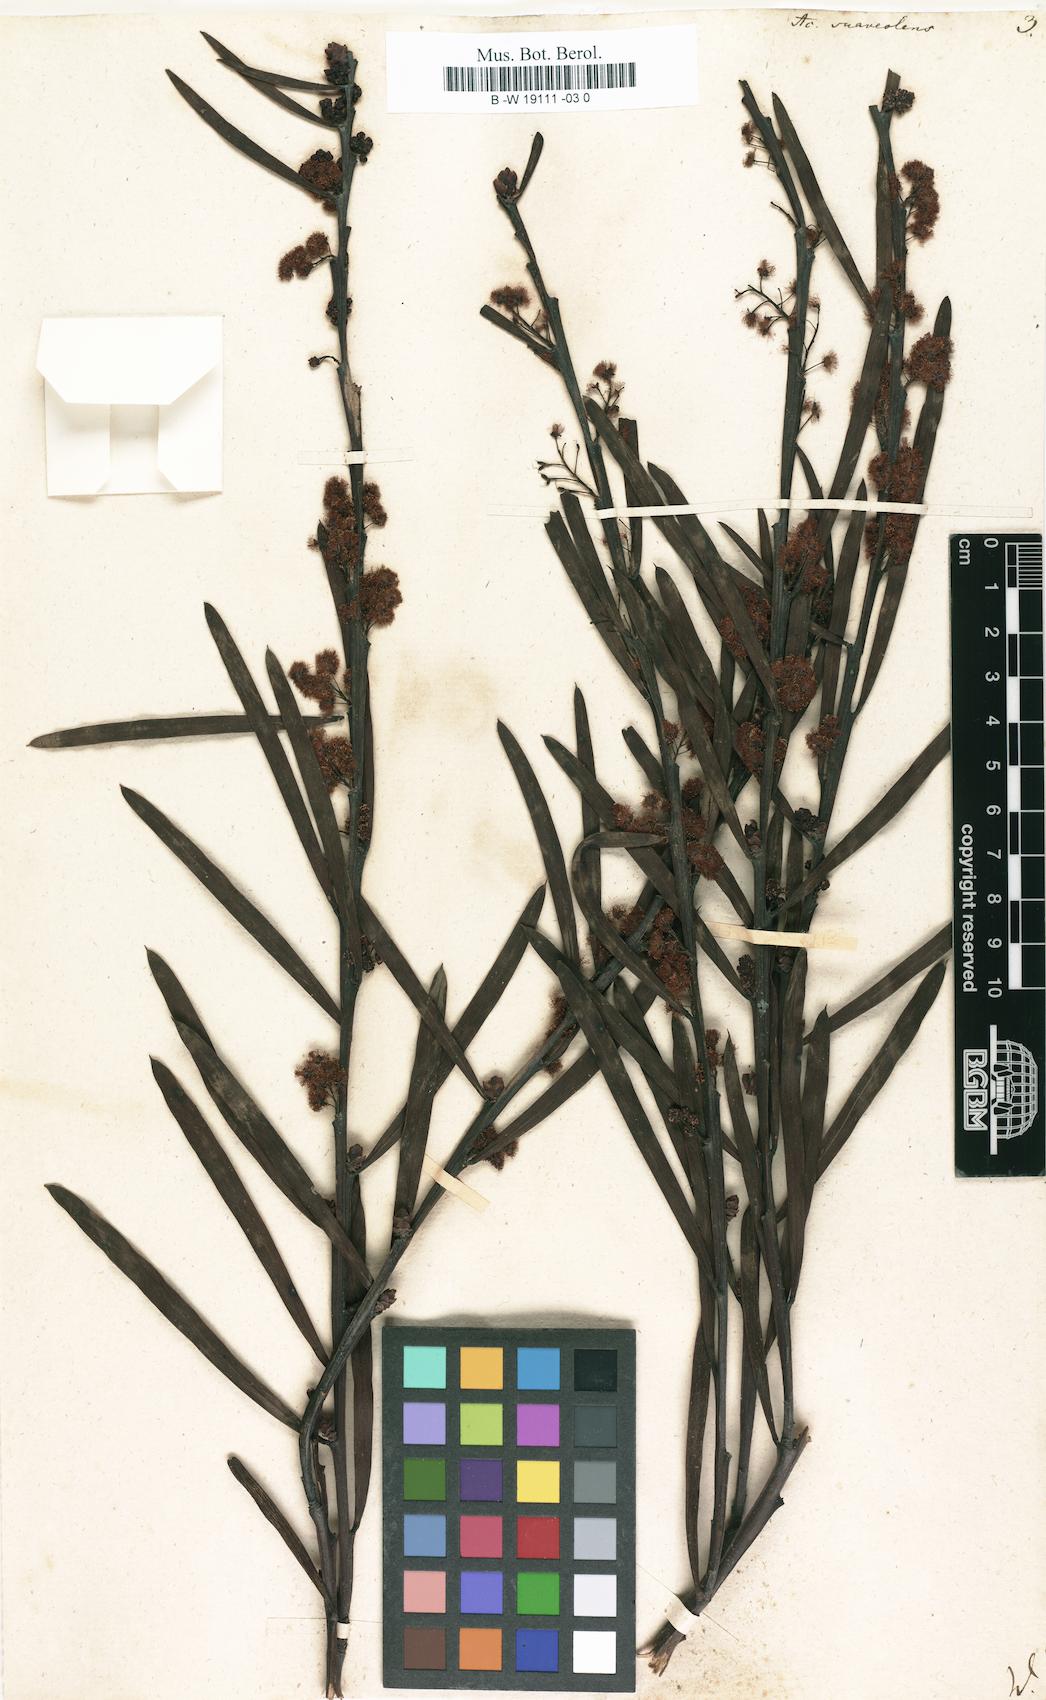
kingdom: Plantae
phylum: Tracheophyta
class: Magnoliopsida
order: Fabales
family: Fabaceae
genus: Acacia
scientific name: Acacia suaveolens
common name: Sweet acacia
